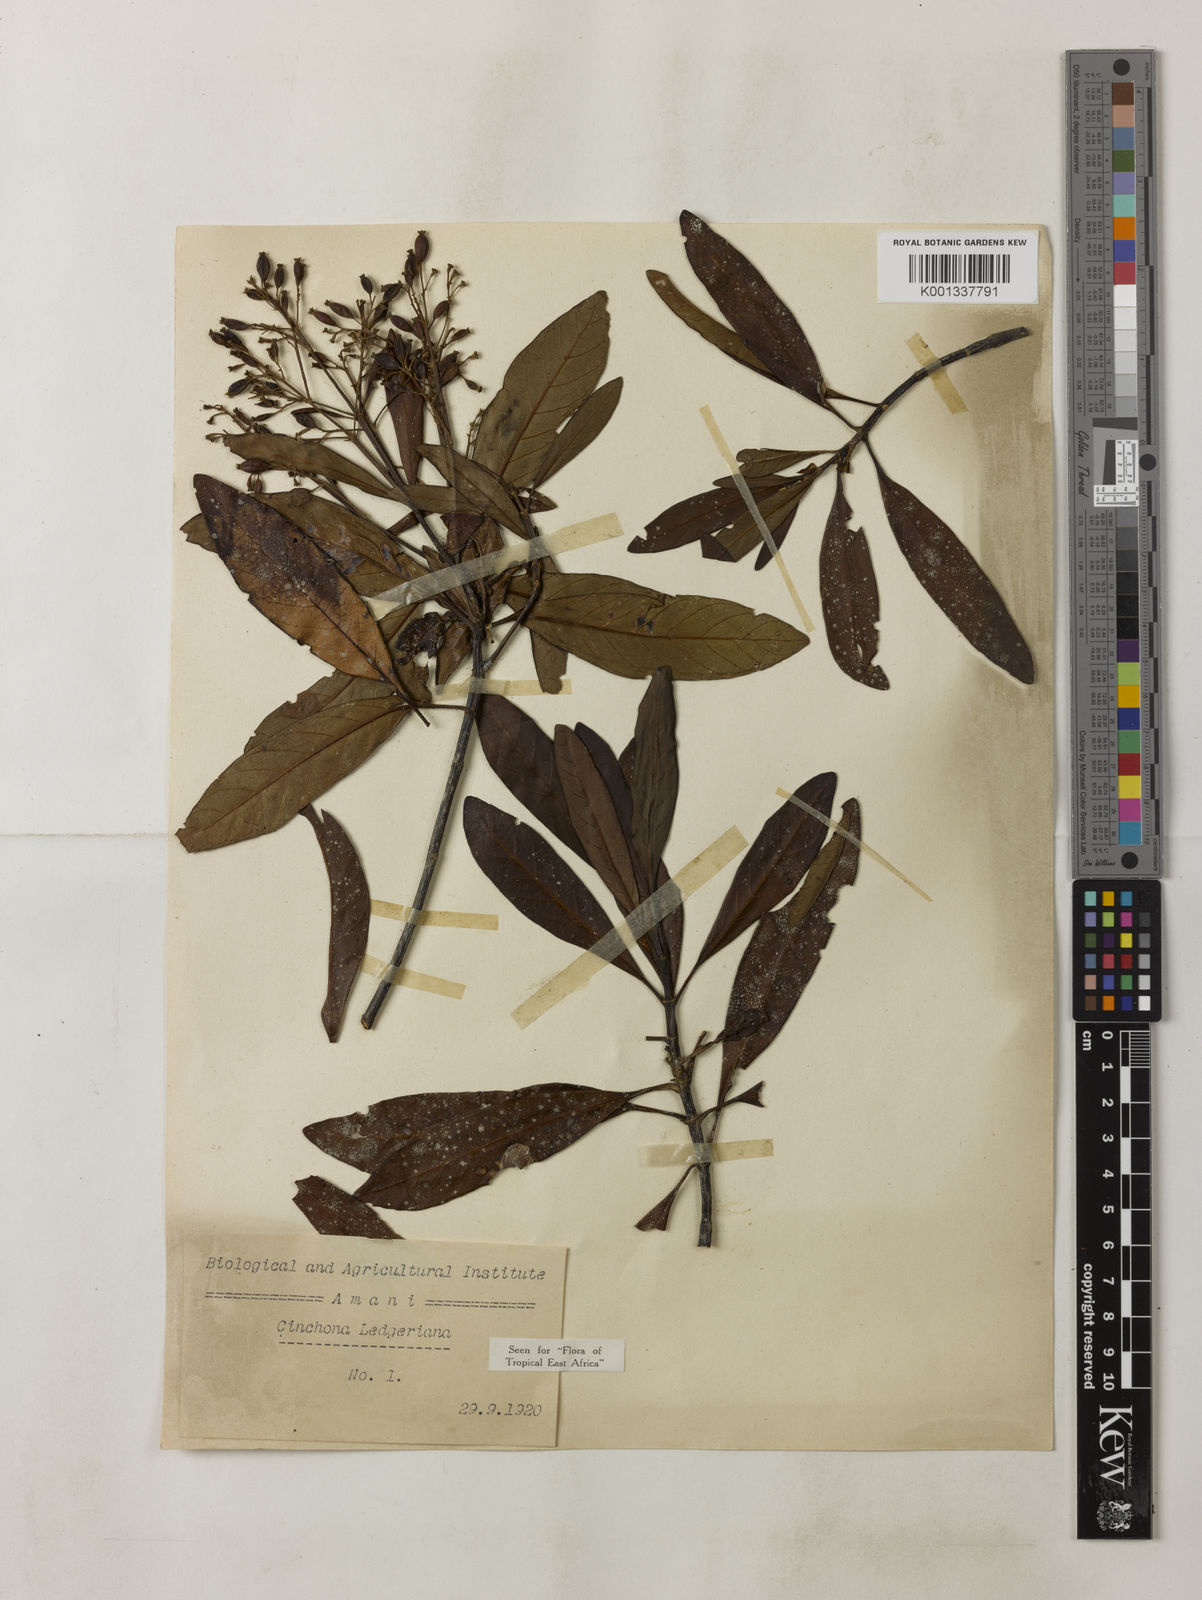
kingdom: Plantae
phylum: Tracheophyta
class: Magnoliopsida
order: Gentianales
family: Rubiaceae
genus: Cinchona
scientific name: Cinchona calisaya
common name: Ledgerbark
